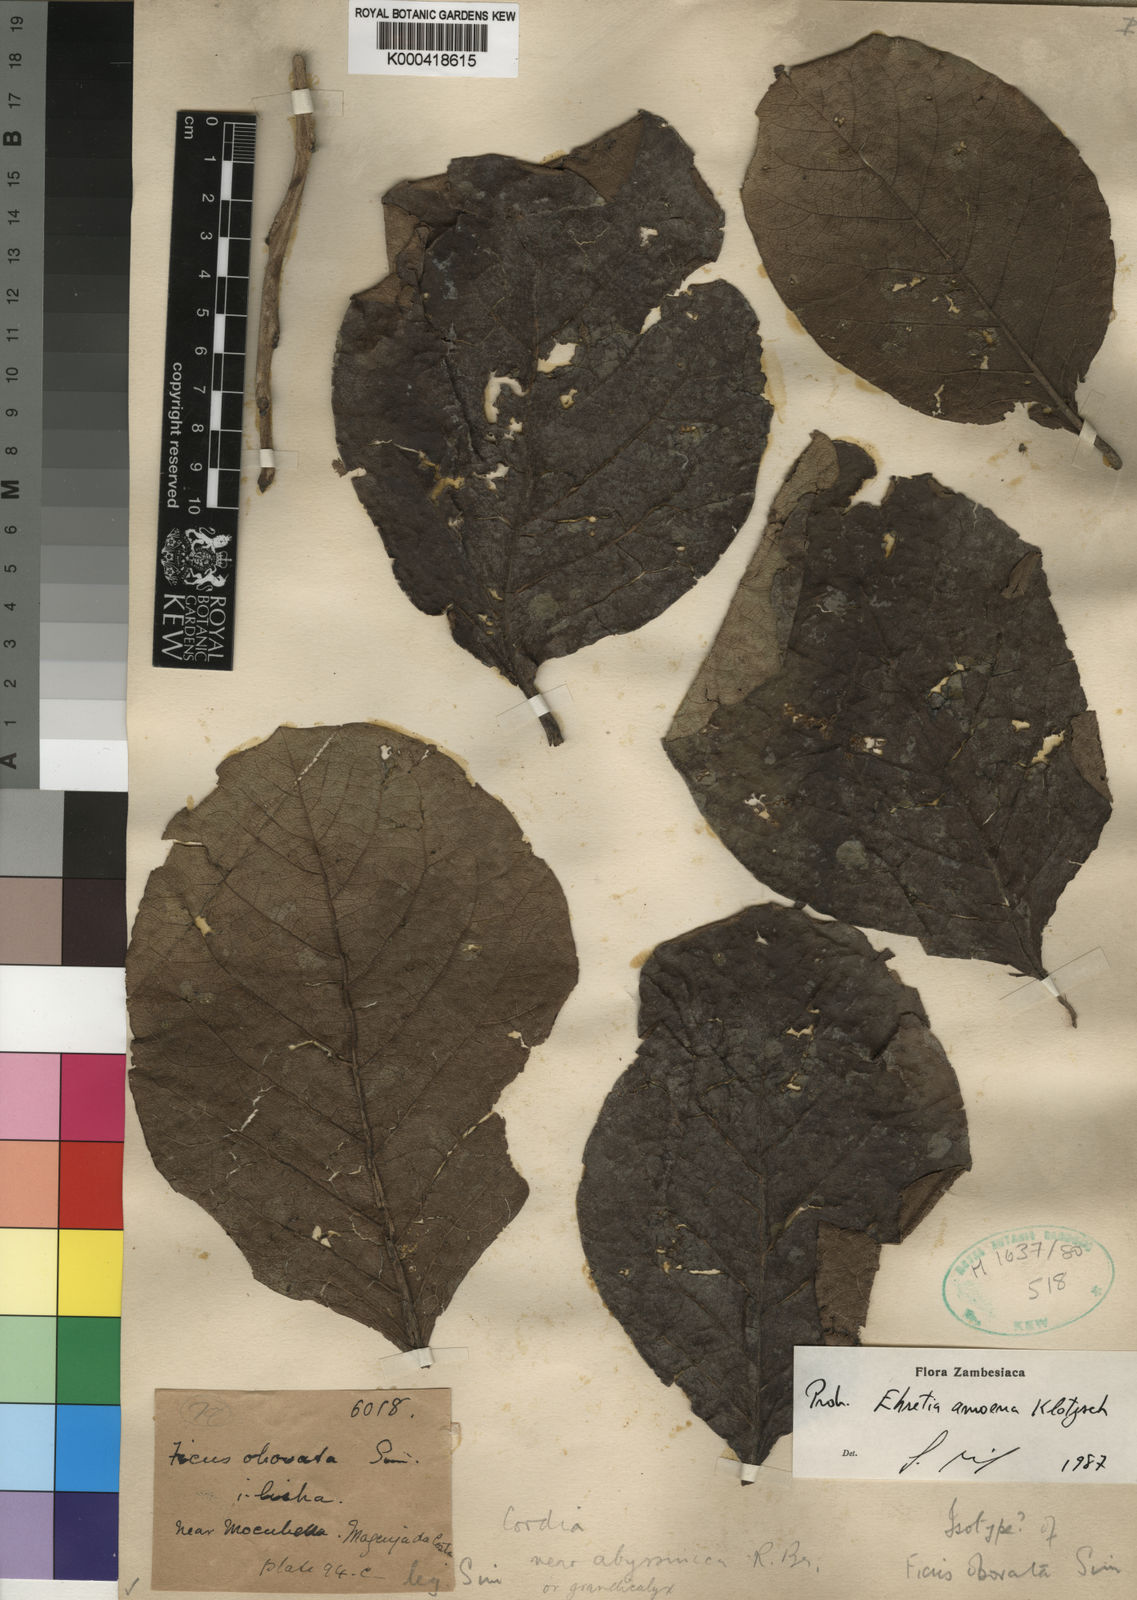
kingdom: Plantae
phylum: Tracheophyta
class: Magnoliopsida
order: Boraginales
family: Ehretiaceae
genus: Ehretia
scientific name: Ehretia amoena
